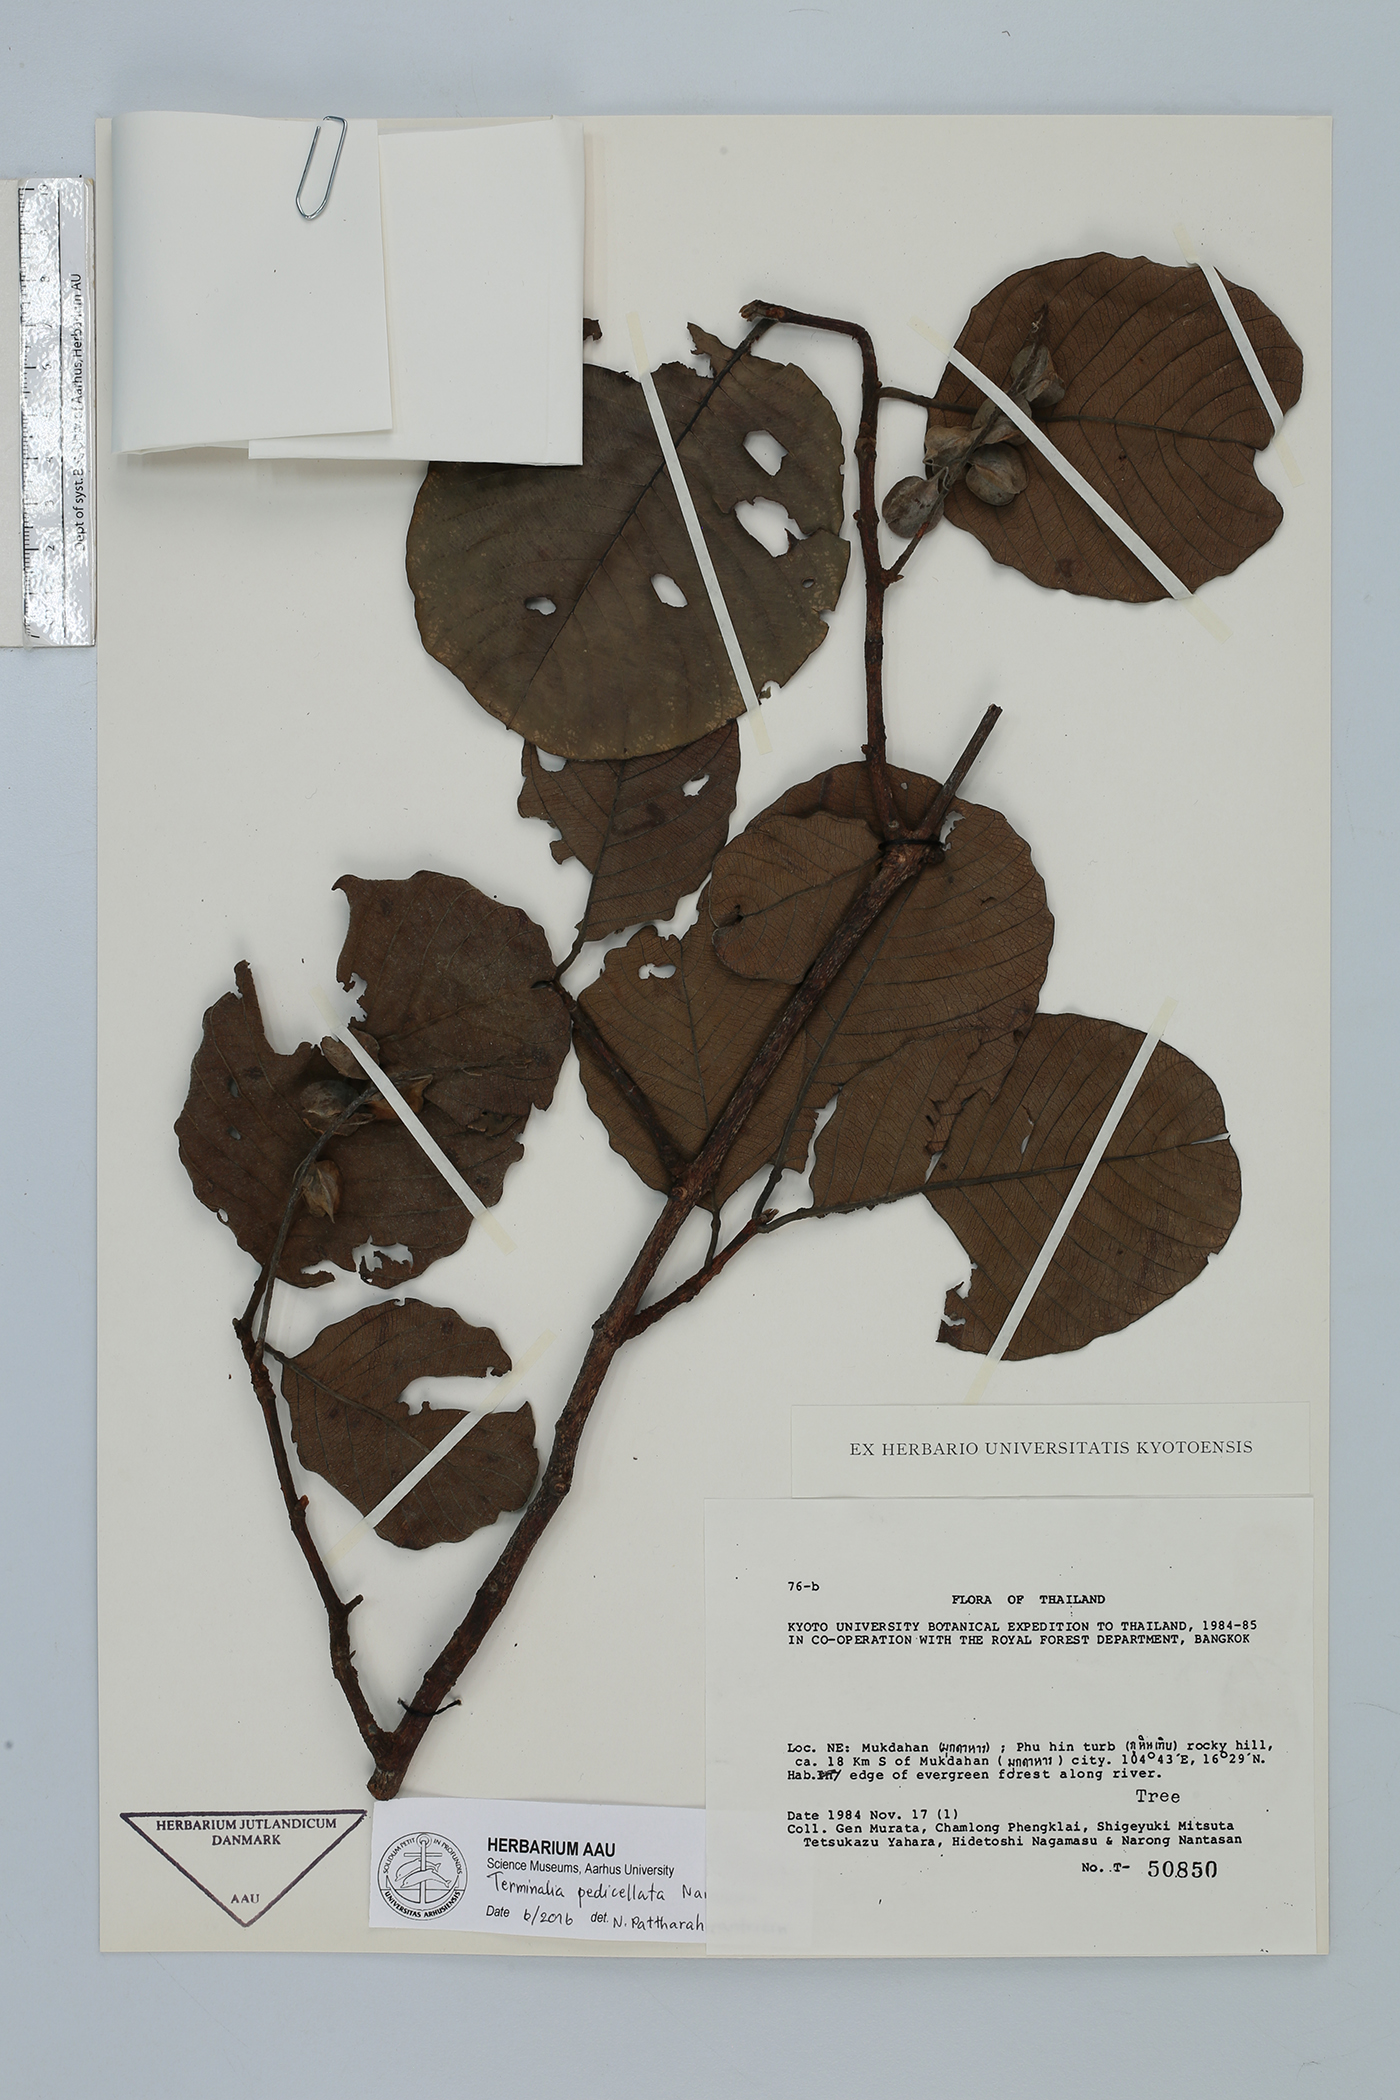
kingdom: Plantae
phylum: Tracheophyta
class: Magnoliopsida
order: Myrtales
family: Combretaceae
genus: Terminalia
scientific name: Terminalia pedicellata
